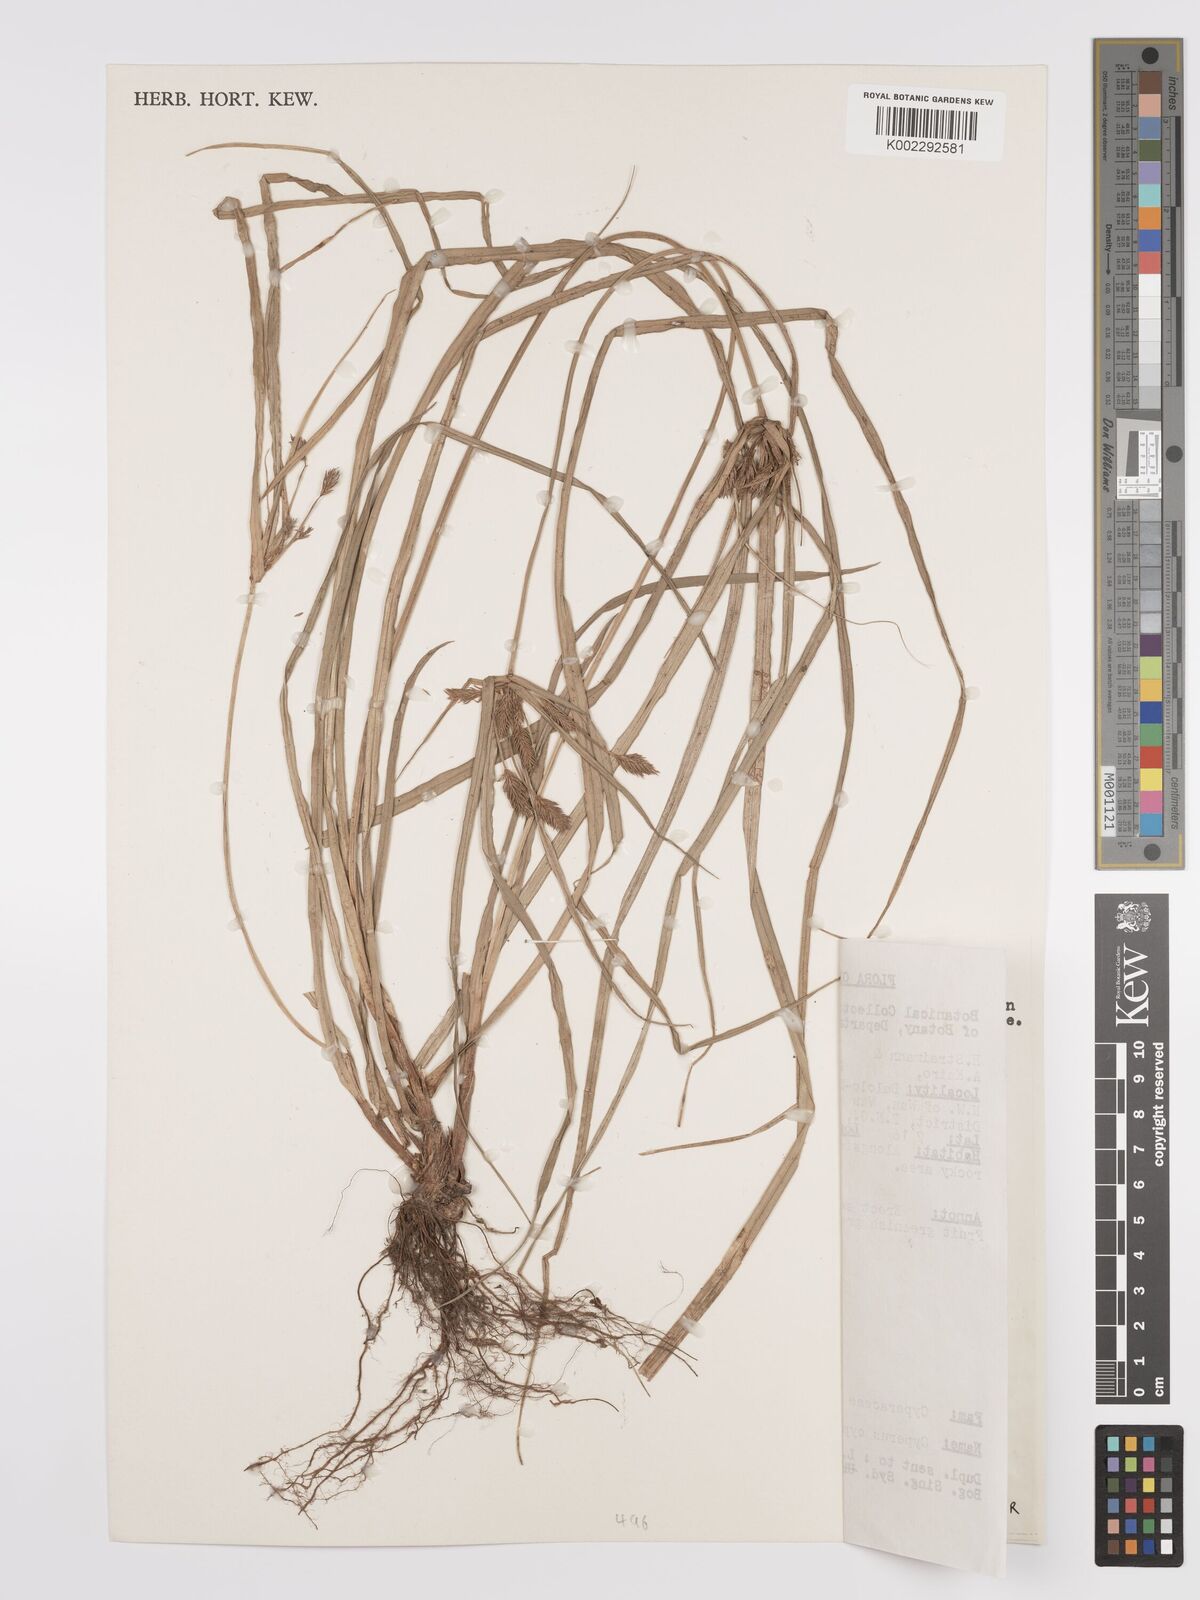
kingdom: Plantae
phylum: Tracheophyta
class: Liliopsida
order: Poales
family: Cyperaceae
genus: Cyperus
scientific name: Cyperus cyperoides
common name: Pacific island flat sedge
